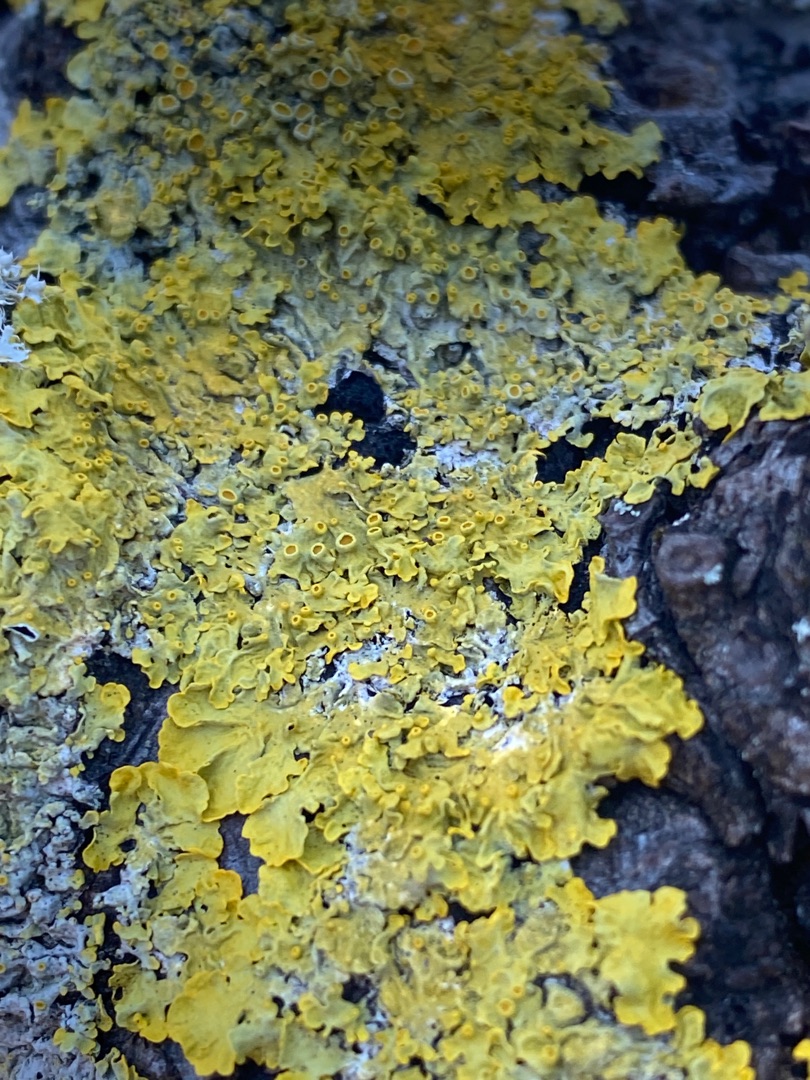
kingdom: Fungi
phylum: Ascomycota
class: Lecanoromycetes
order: Teloschistales
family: Teloschistaceae
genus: Xanthoria
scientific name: Xanthoria parietina
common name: Almindelig væggelav
